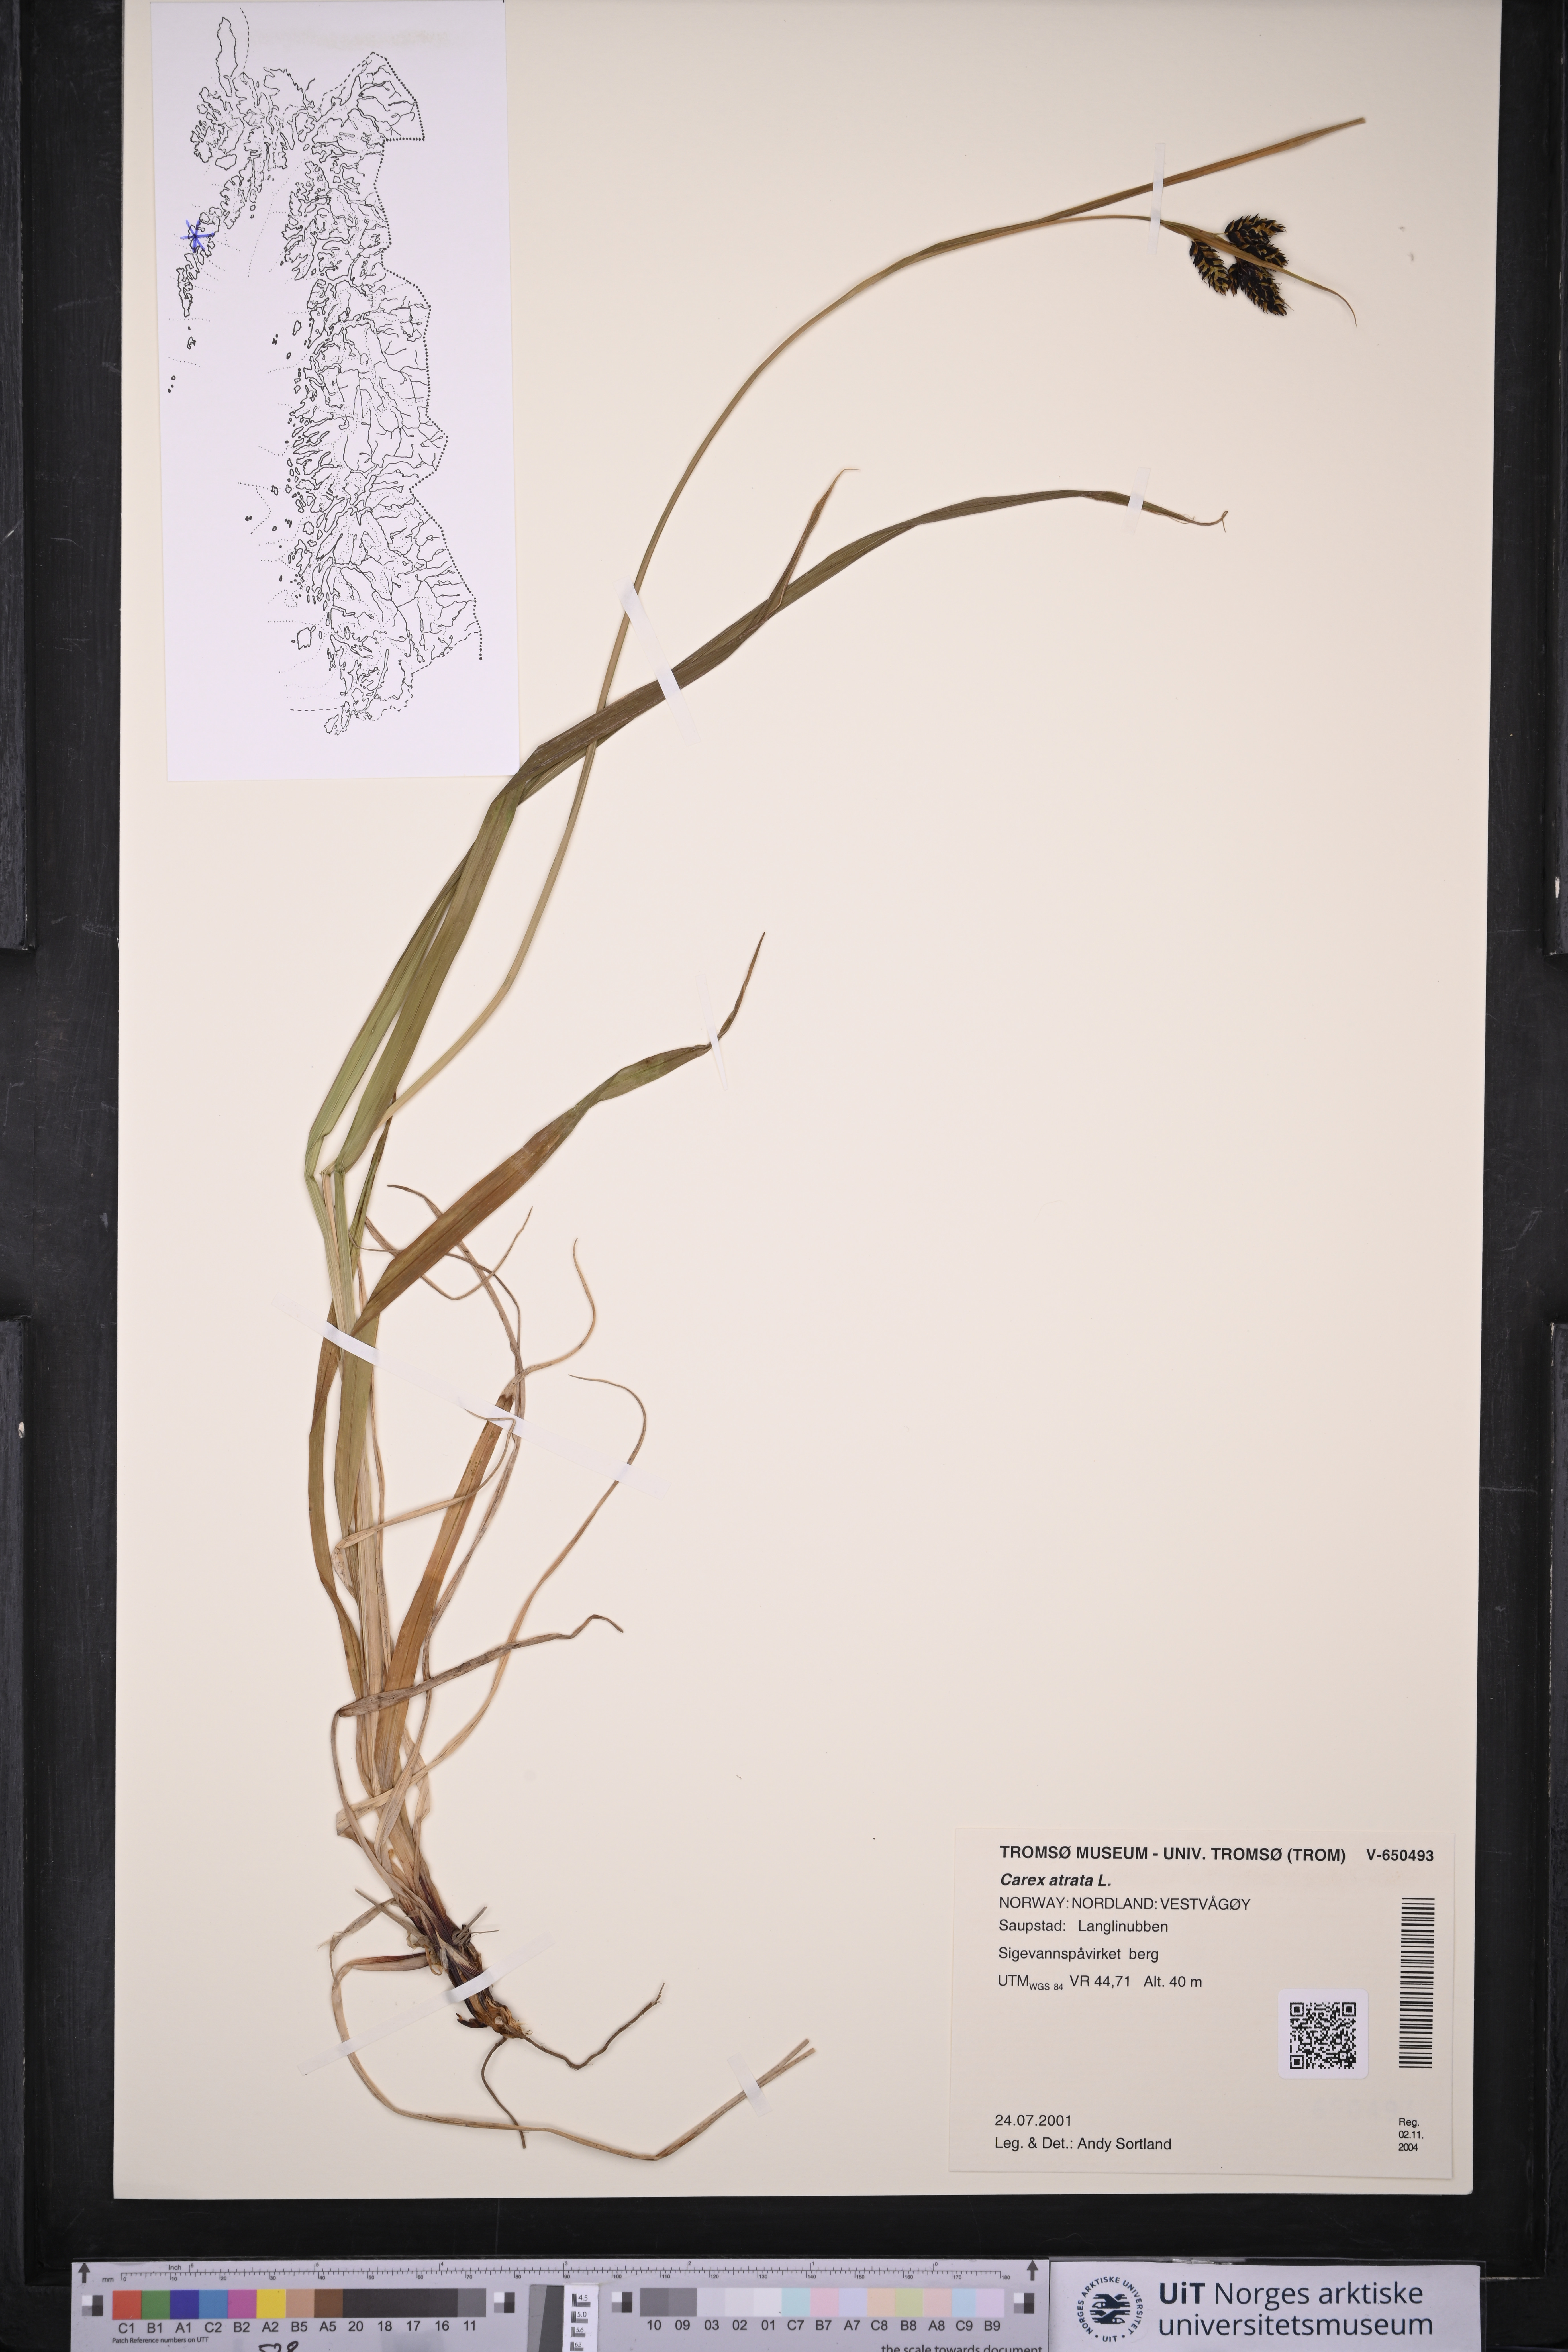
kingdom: Plantae
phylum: Tracheophyta
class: Liliopsida
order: Poales
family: Cyperaceae
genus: Carex
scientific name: Carex atrata
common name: Black alpine sedge
